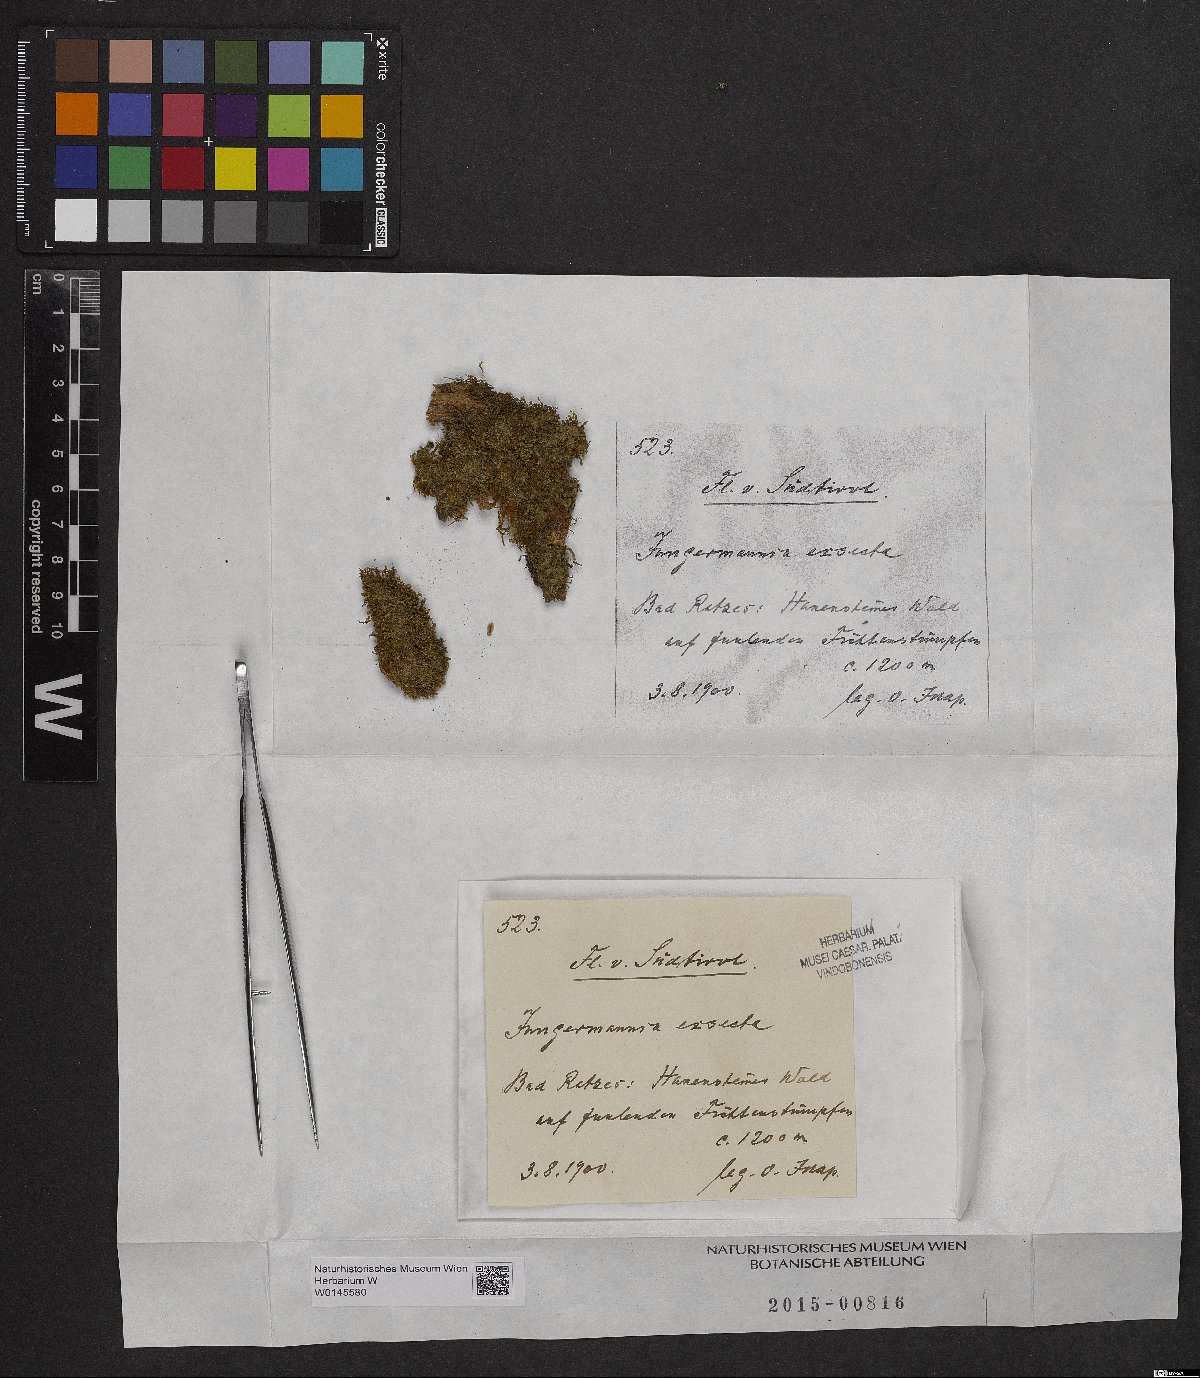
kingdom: Plantae
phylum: Marchantiophyta
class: Jungermanniopsida
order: Jungermanniales
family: Lophoziaceae
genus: Tritomaria
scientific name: Tritomaria exsecta
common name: Cut notchwort
